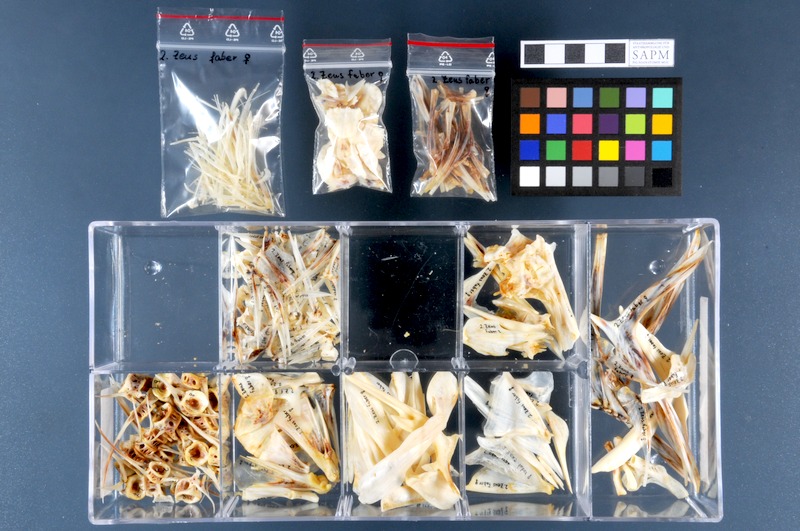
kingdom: Animalia
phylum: Chordata
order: Zeiformes
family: Zeidae
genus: Zeus
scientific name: Zeus faber
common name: John dory
